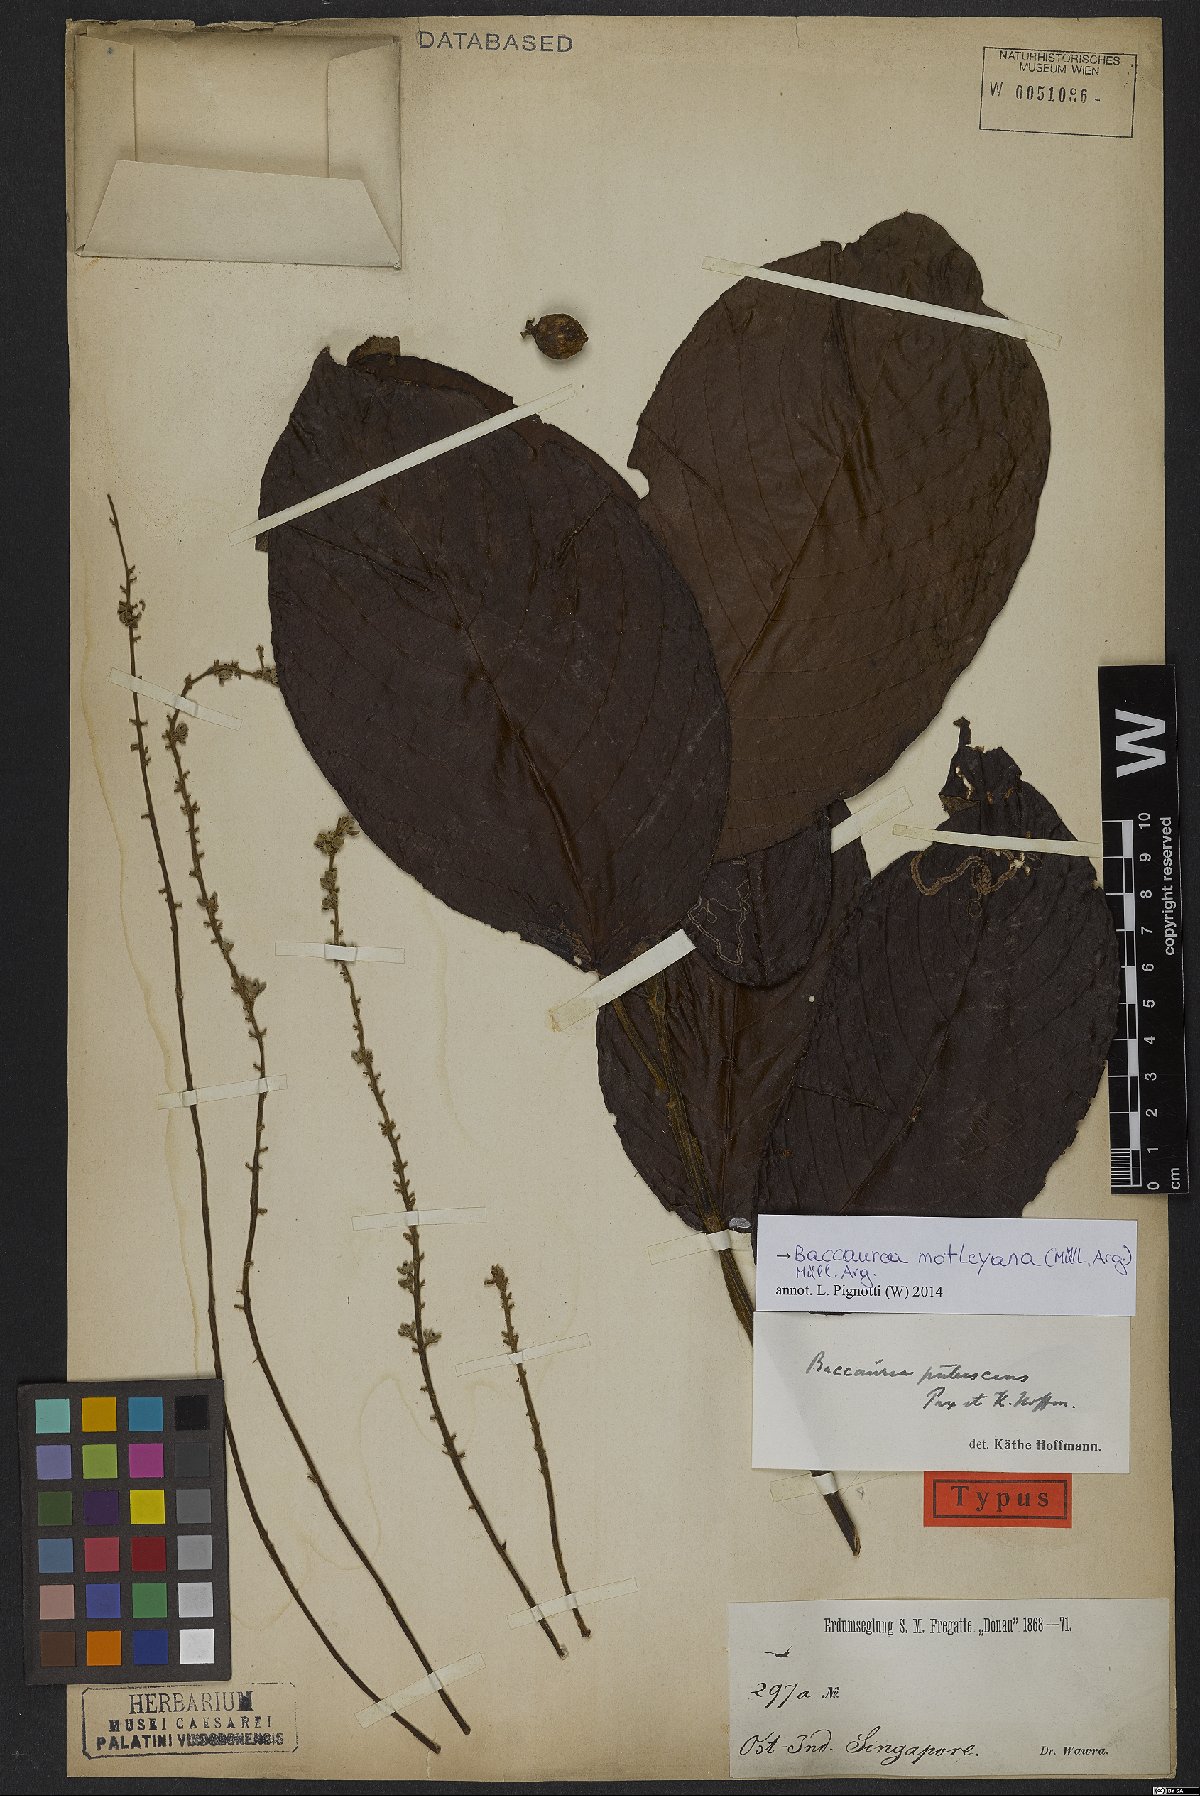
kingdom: Plantae
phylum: Tracheophyta
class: Magnoliopsida
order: Malpighiales
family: Phyllanthaceae
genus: Baccaurea
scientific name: Baccaurea motleyana
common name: Rambai
